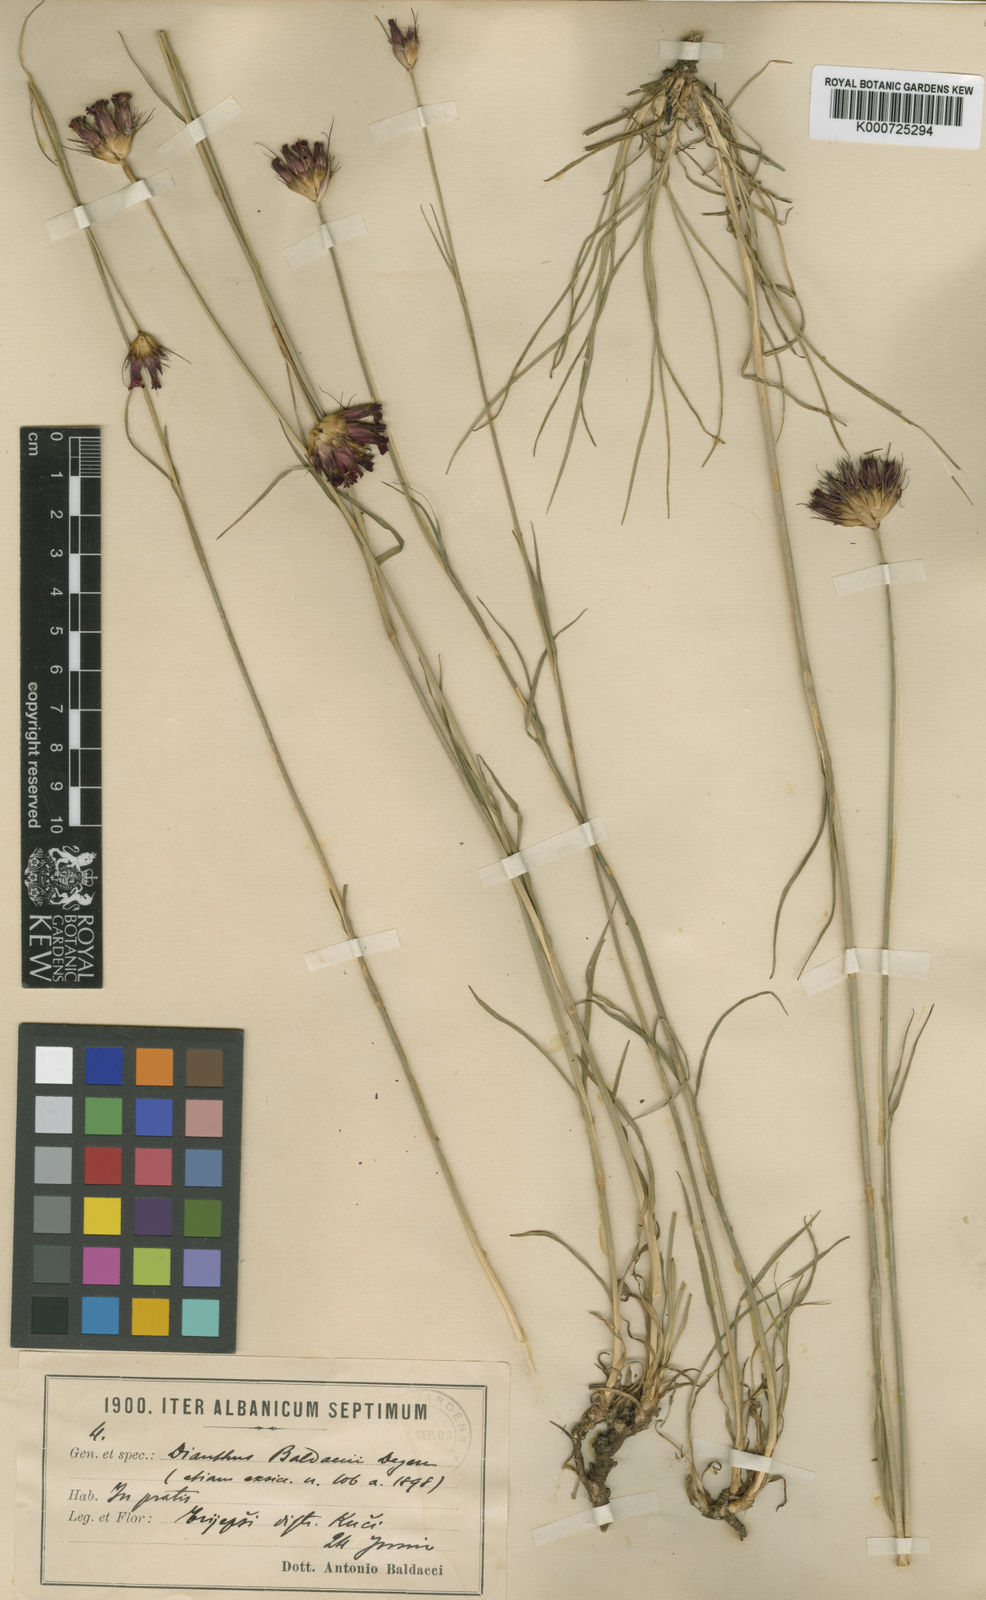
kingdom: Plantae
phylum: Tracheophyta
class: Magnoliopsida
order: Caryophyllales
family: Caryophyllaceae
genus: Dianthus
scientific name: Dianthus cruentus
